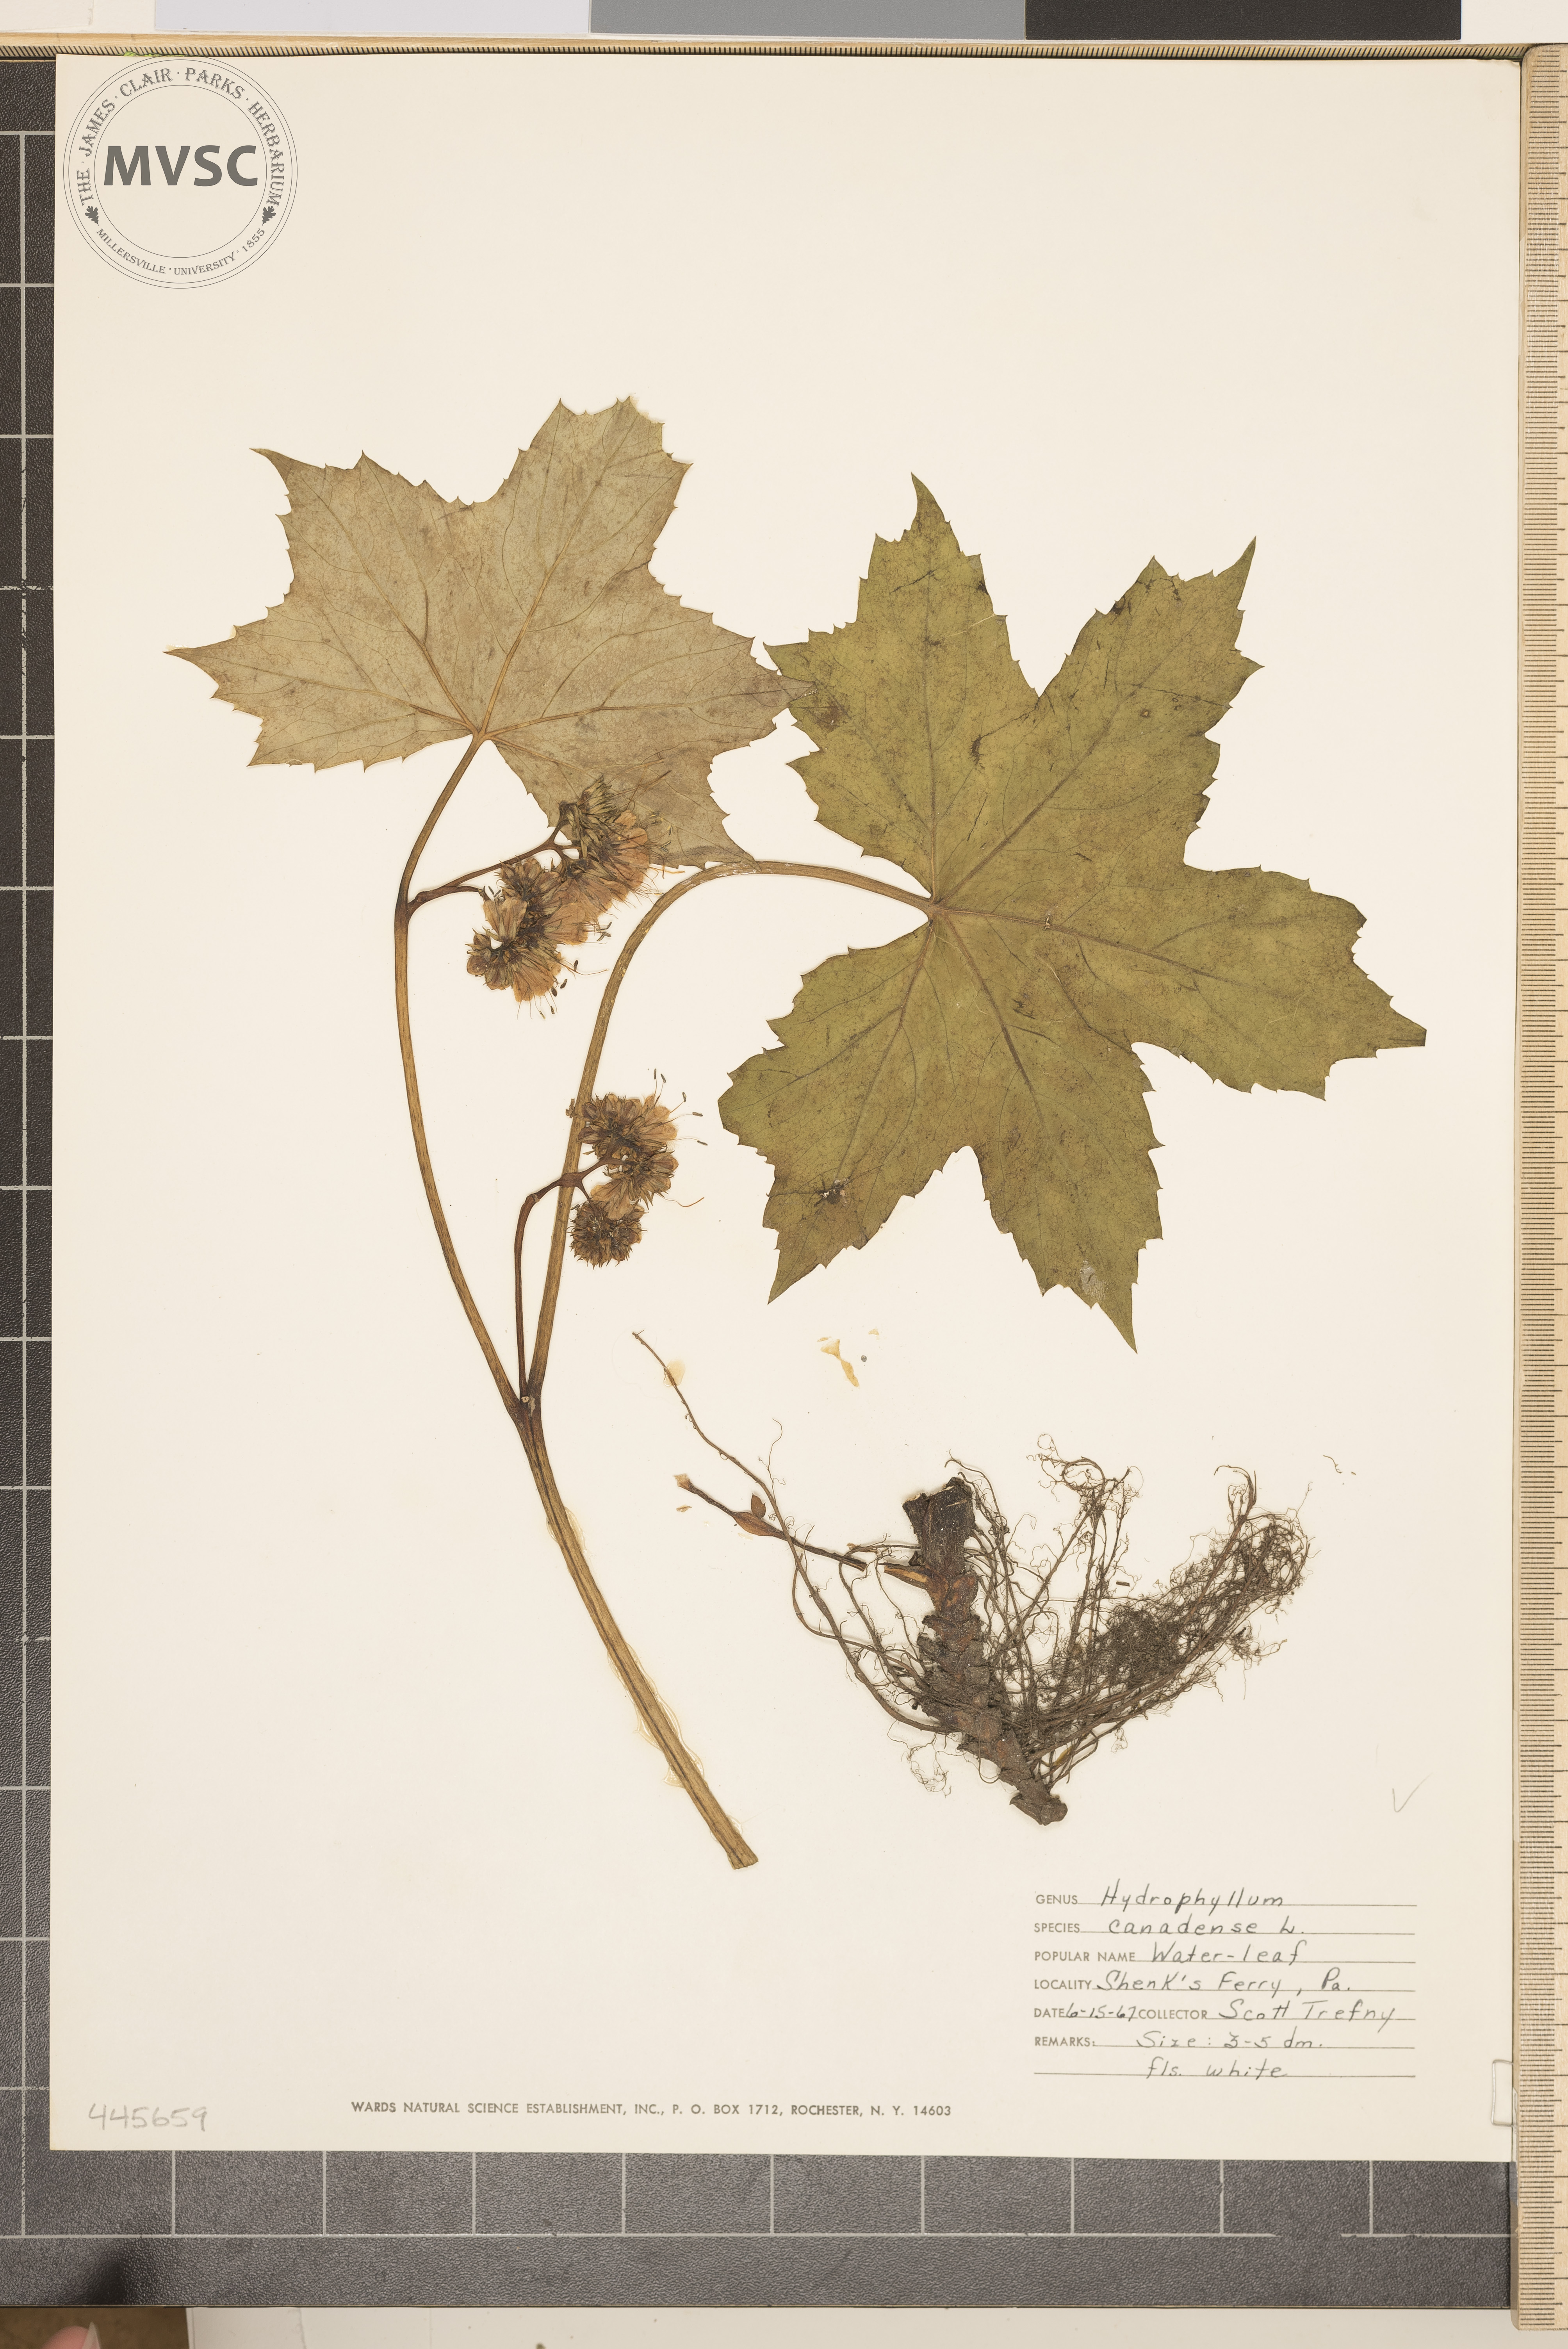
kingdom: Plantae
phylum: Tracheophyta
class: Magnoliopsida
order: Boraginales
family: Hydrophyllaceae
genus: Hydrophyllum
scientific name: Hydrophyllum canadense
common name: Canada waterleaf
